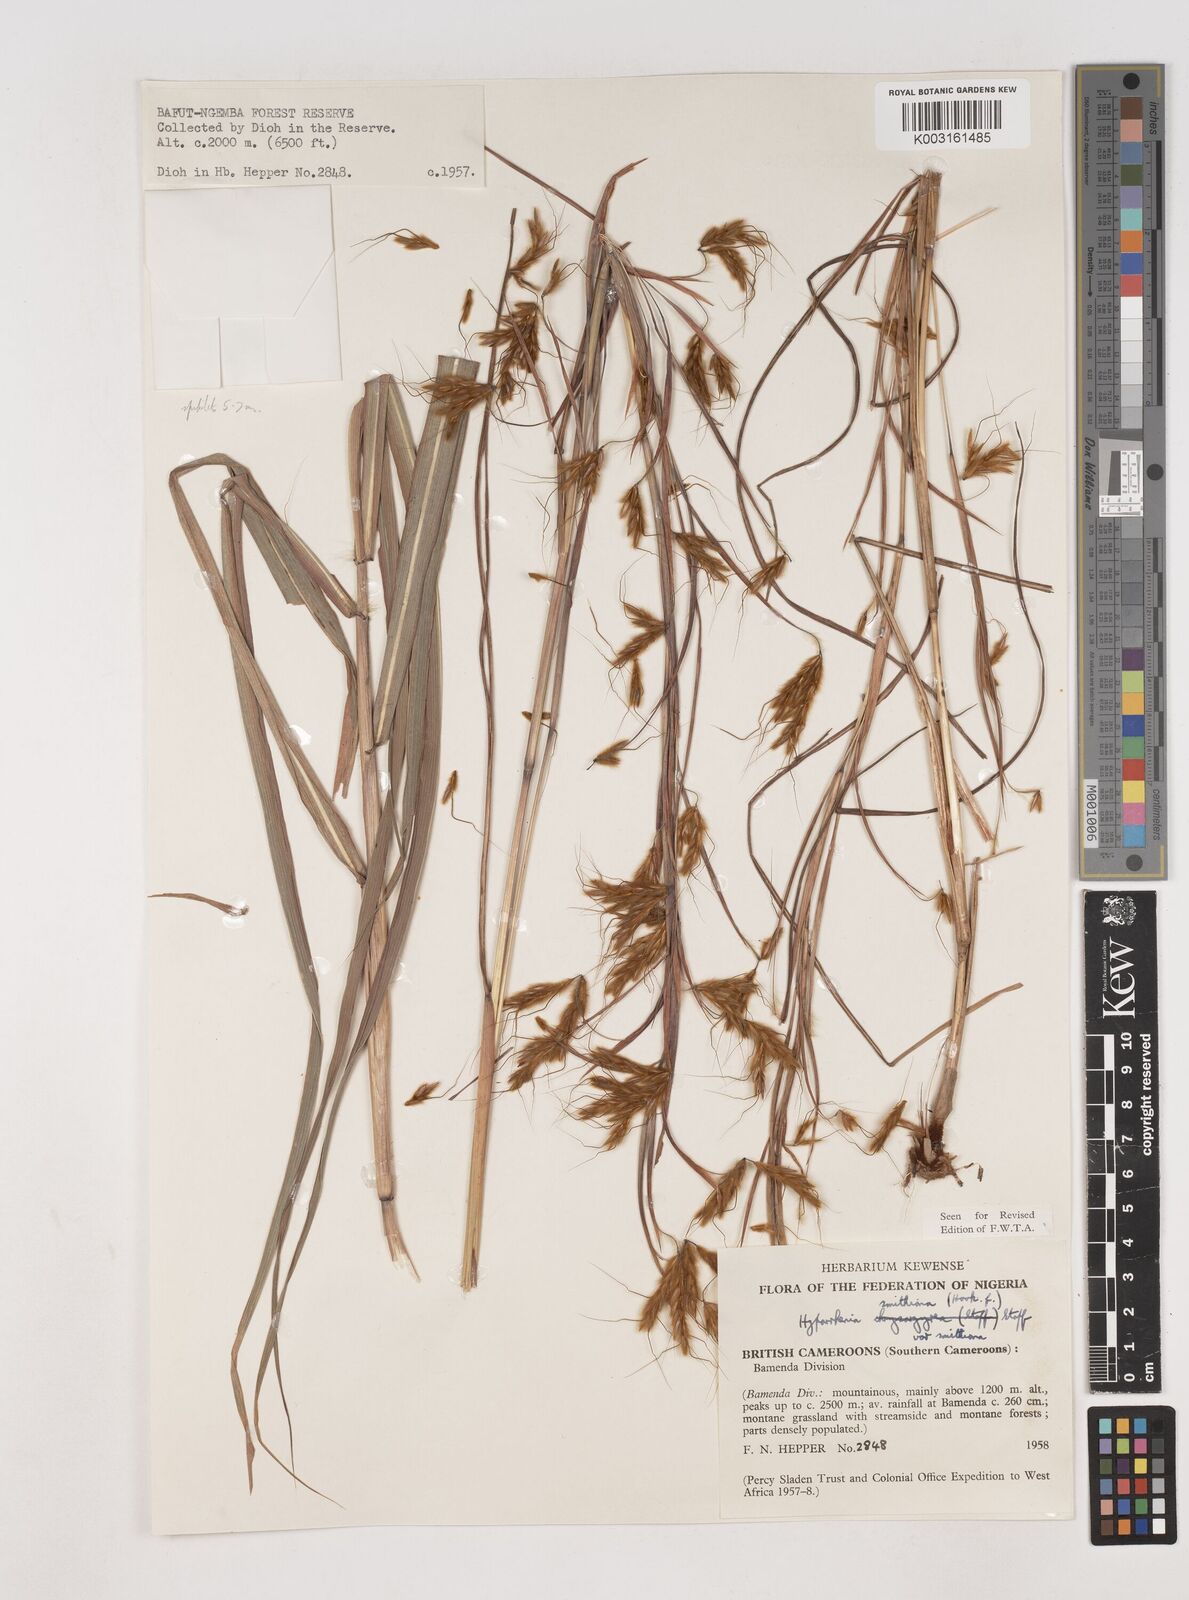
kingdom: Plantae
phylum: Tracheophyta
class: Liliopsida
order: Poales
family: Poaceae
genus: Hyparrhenia
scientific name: Hyparrhenia smithiana
